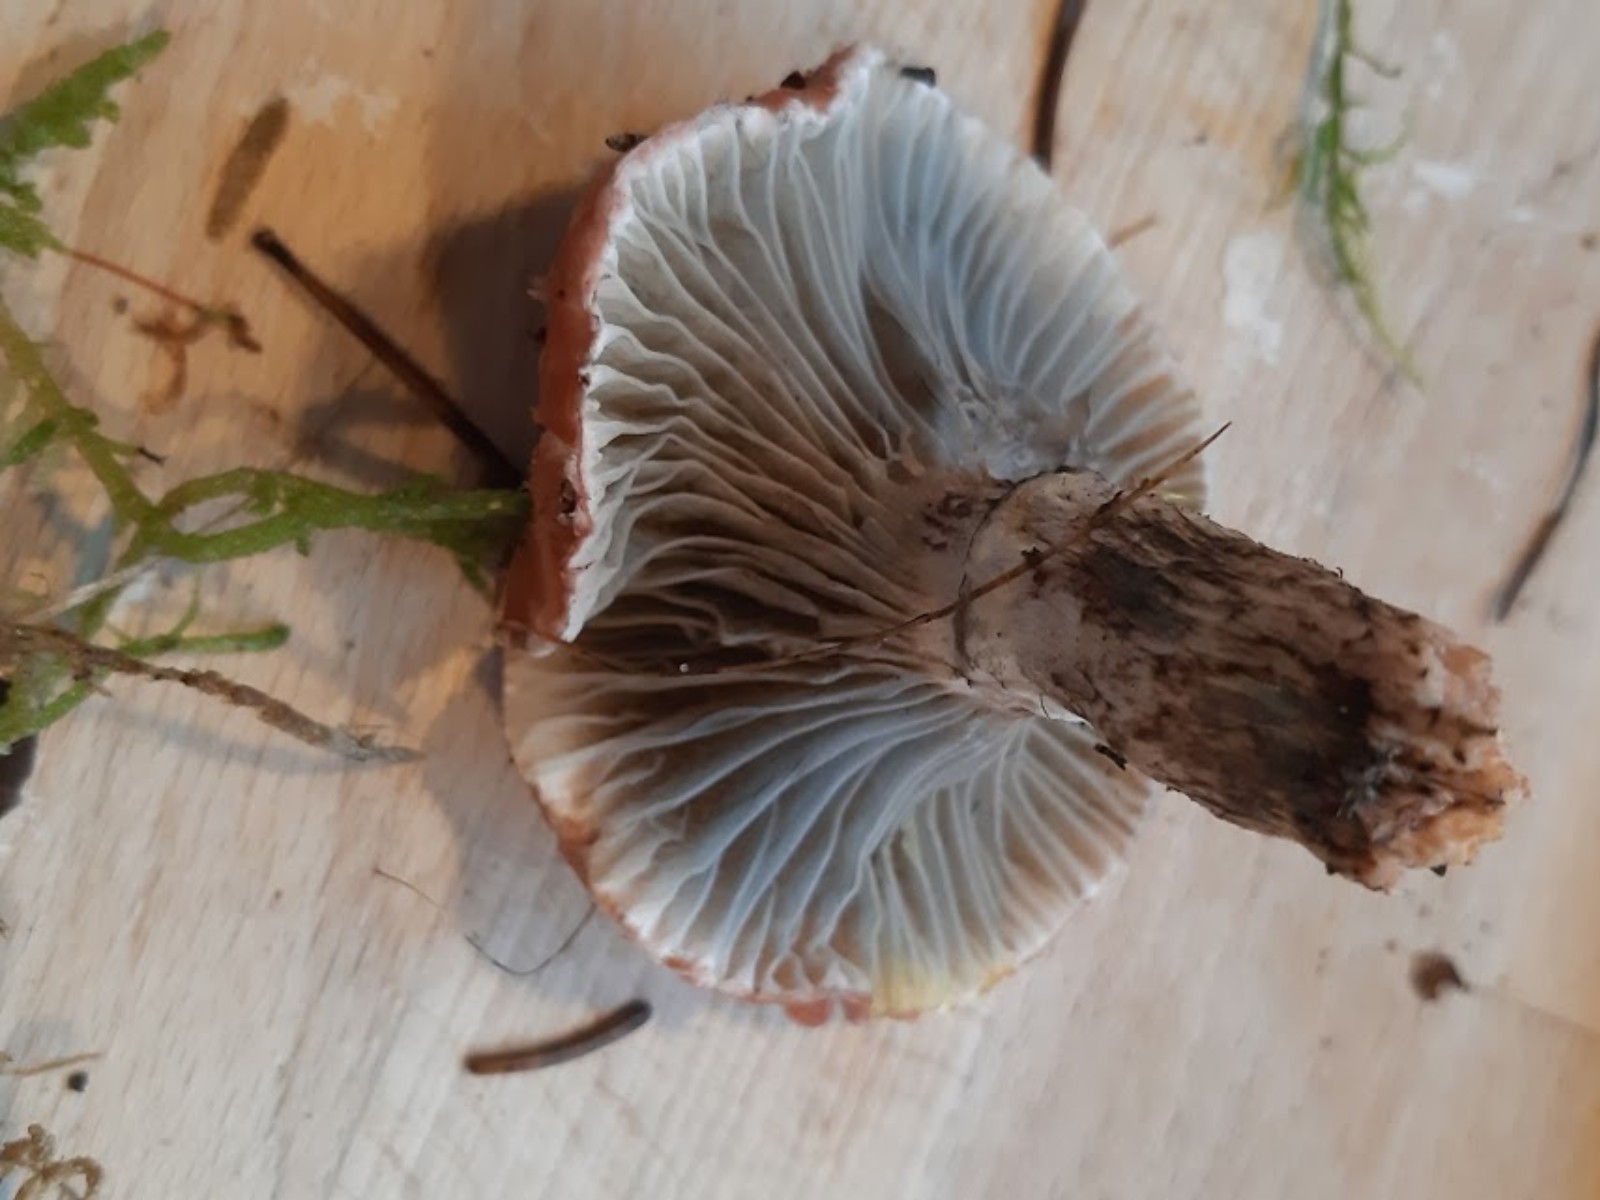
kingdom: Fungi
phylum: Basidiomycota
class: Agaricomycetes
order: Boletales
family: Gomphidiaceae
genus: Gomphidius
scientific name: Gomphidius roseus
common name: rosenrød slimslør
